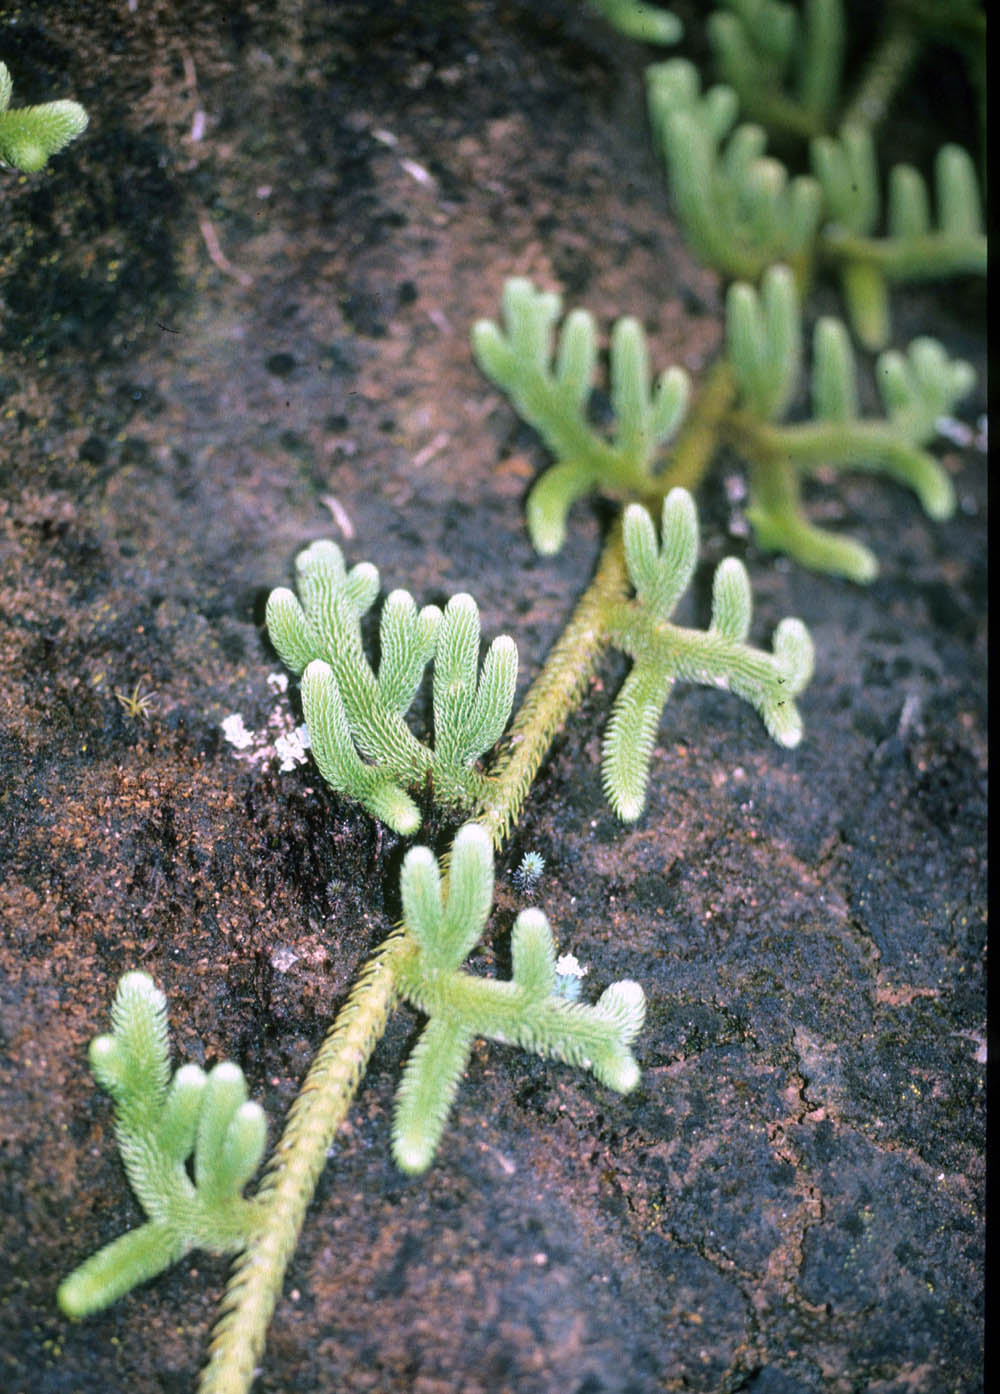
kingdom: Plantae
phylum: Tracheophyta
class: Lycopodiopsida
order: Lycopodiales
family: Lycopodiaceae
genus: Palhinhaea
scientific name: Palhinhaea maniculata
